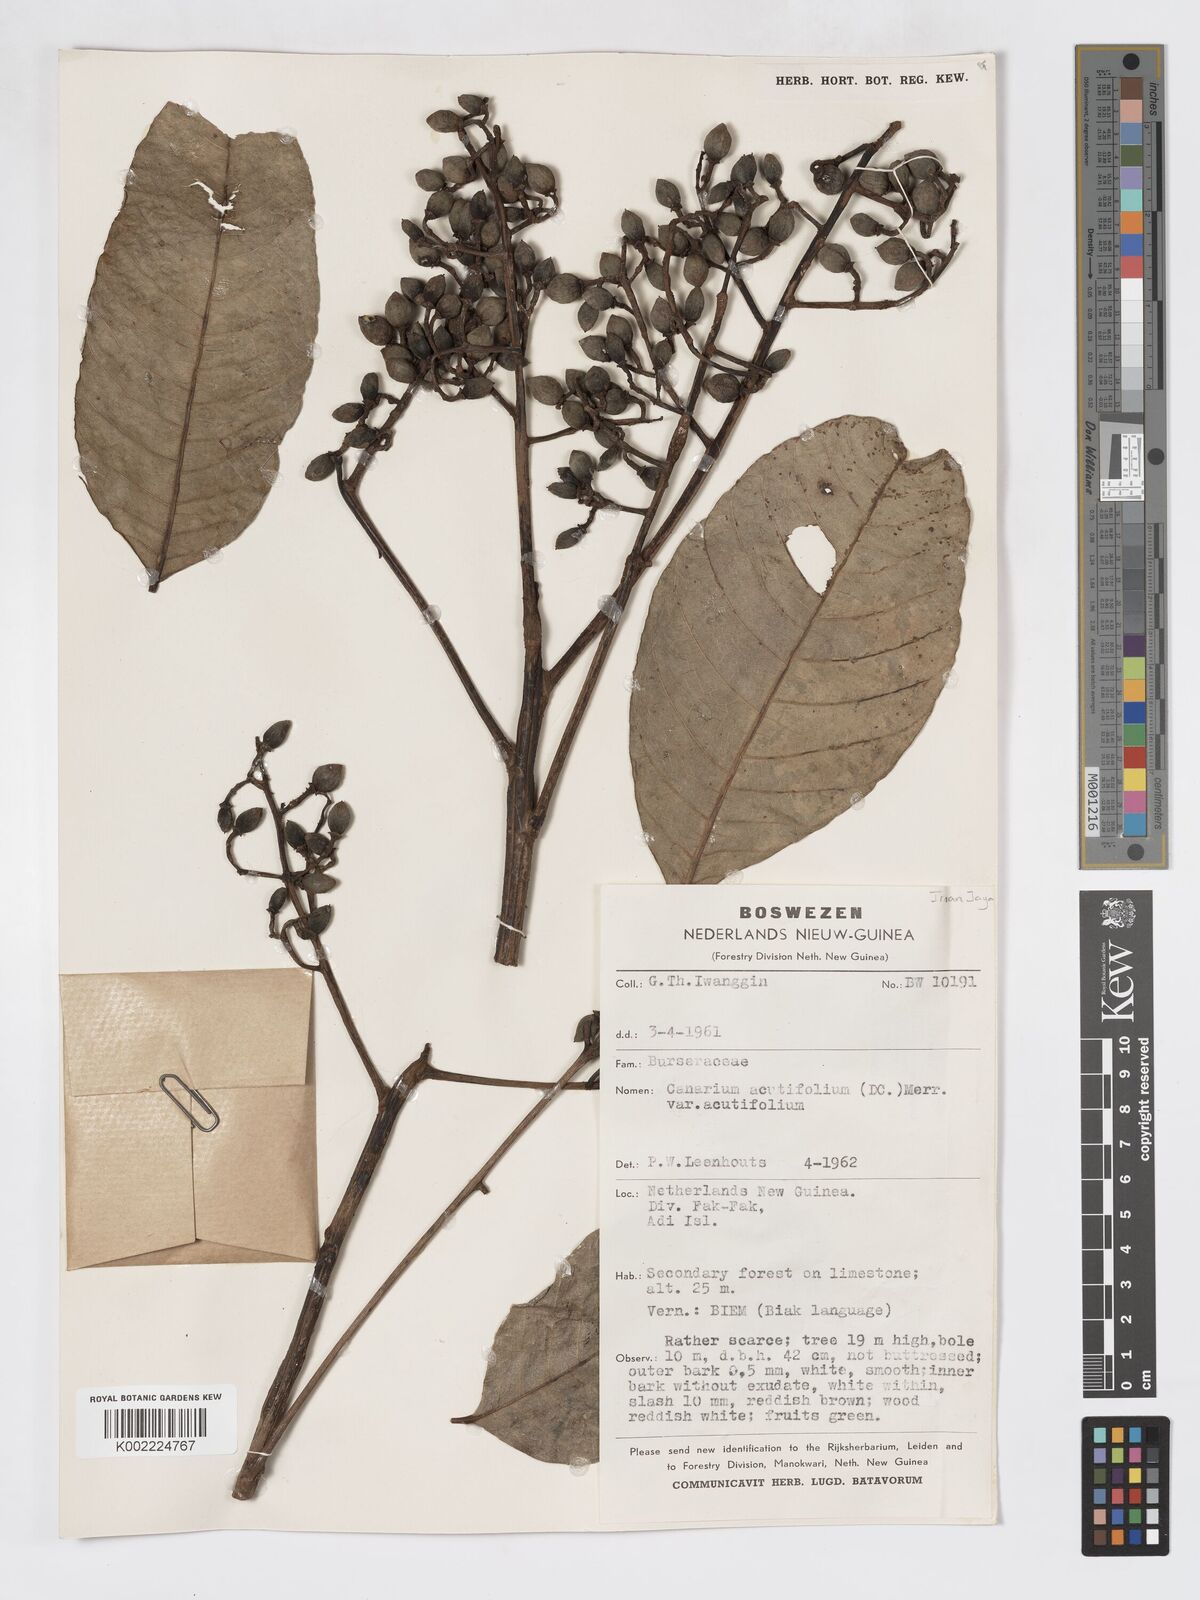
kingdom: Plantae
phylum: Tracheophyta
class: Magnoliopsida
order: Sapindales
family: Burseraceae
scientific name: Burseraceae
